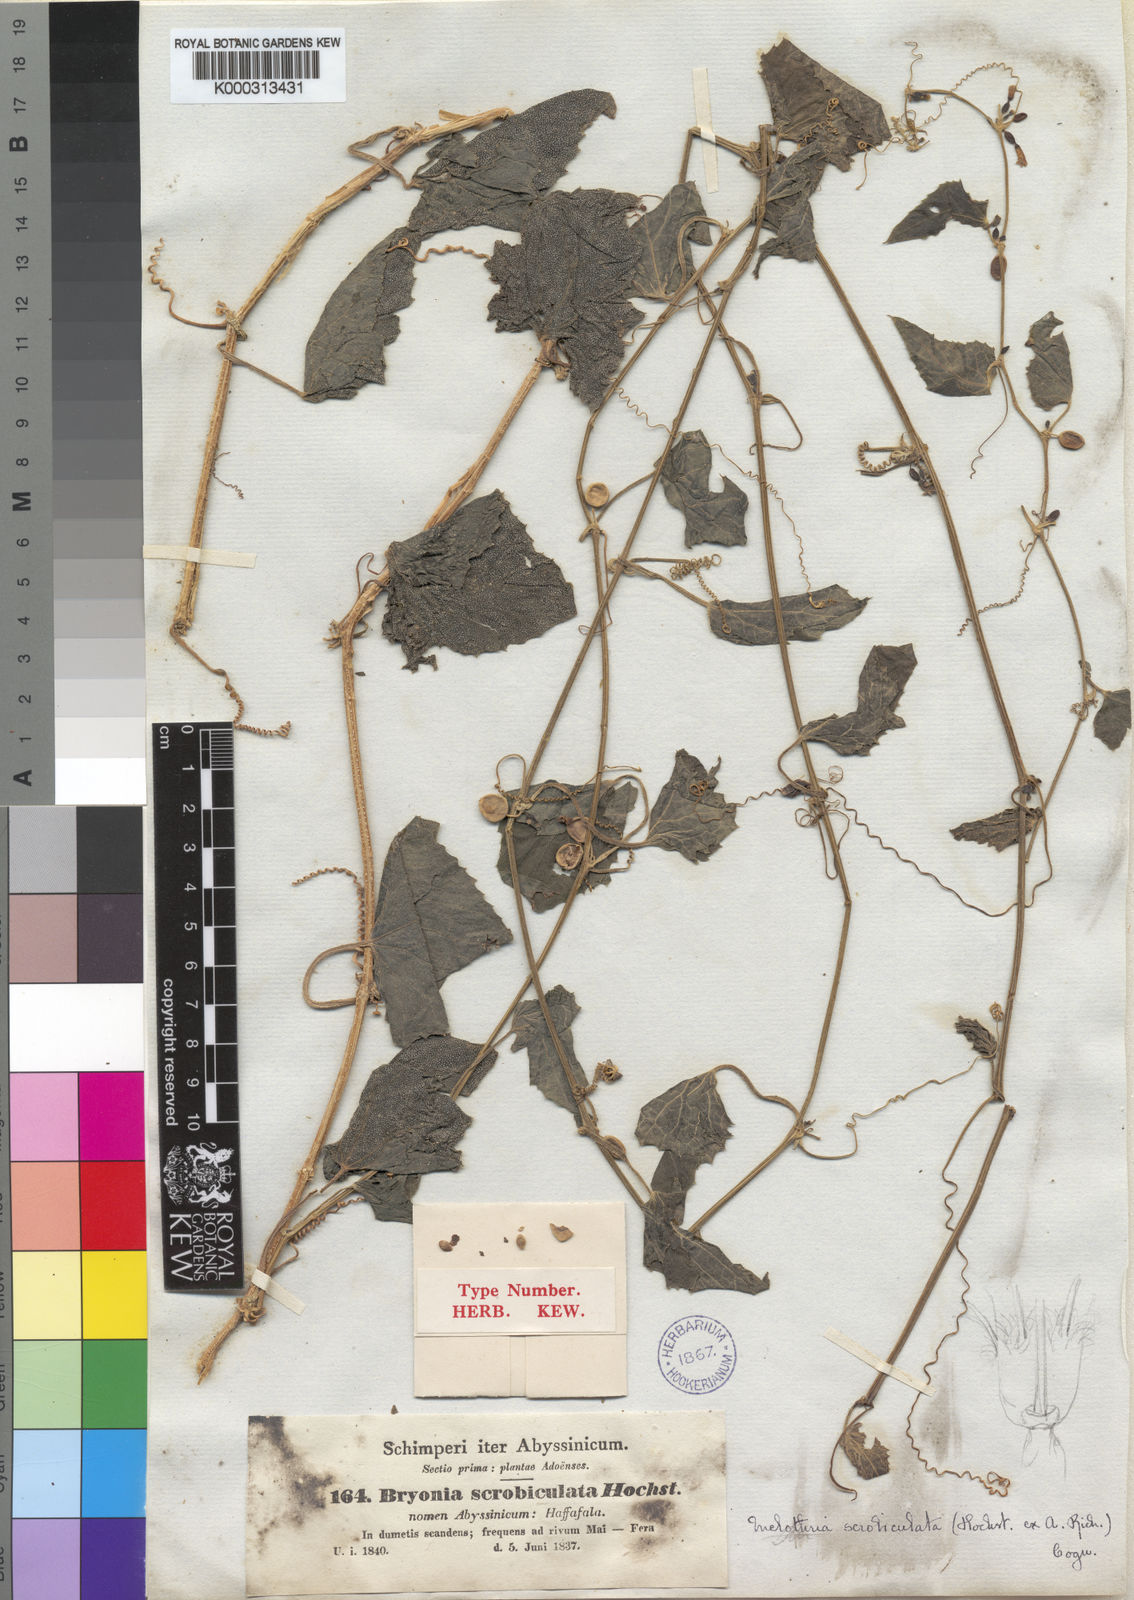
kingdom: Plantae
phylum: Tracheophyta
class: Magnoliopsida
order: Cucurbitales
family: Cucurbitaceae
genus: Zehneria
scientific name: Zehneria scabra
